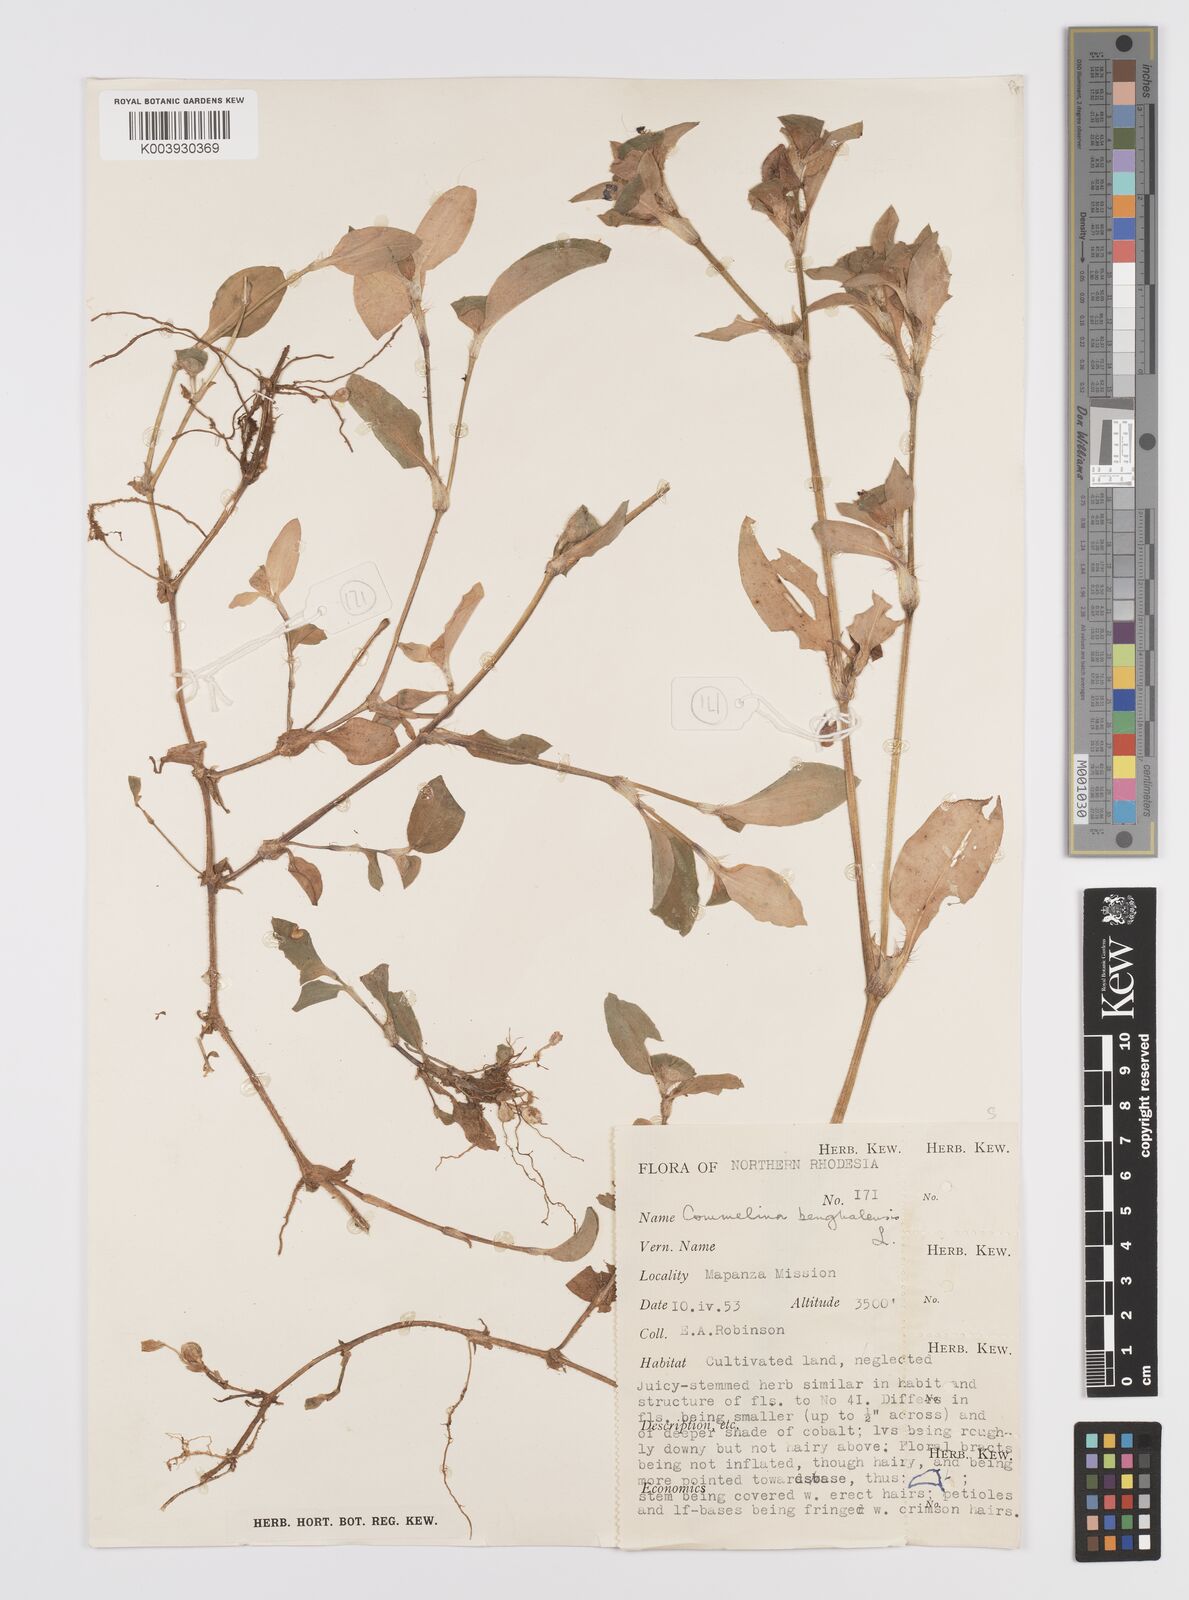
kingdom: Plantae
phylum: Tracheophyta
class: Liliopsida
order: Commelinales
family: Commelinaceae
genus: Commelina
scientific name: Commelina benghalensis
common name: Jio
